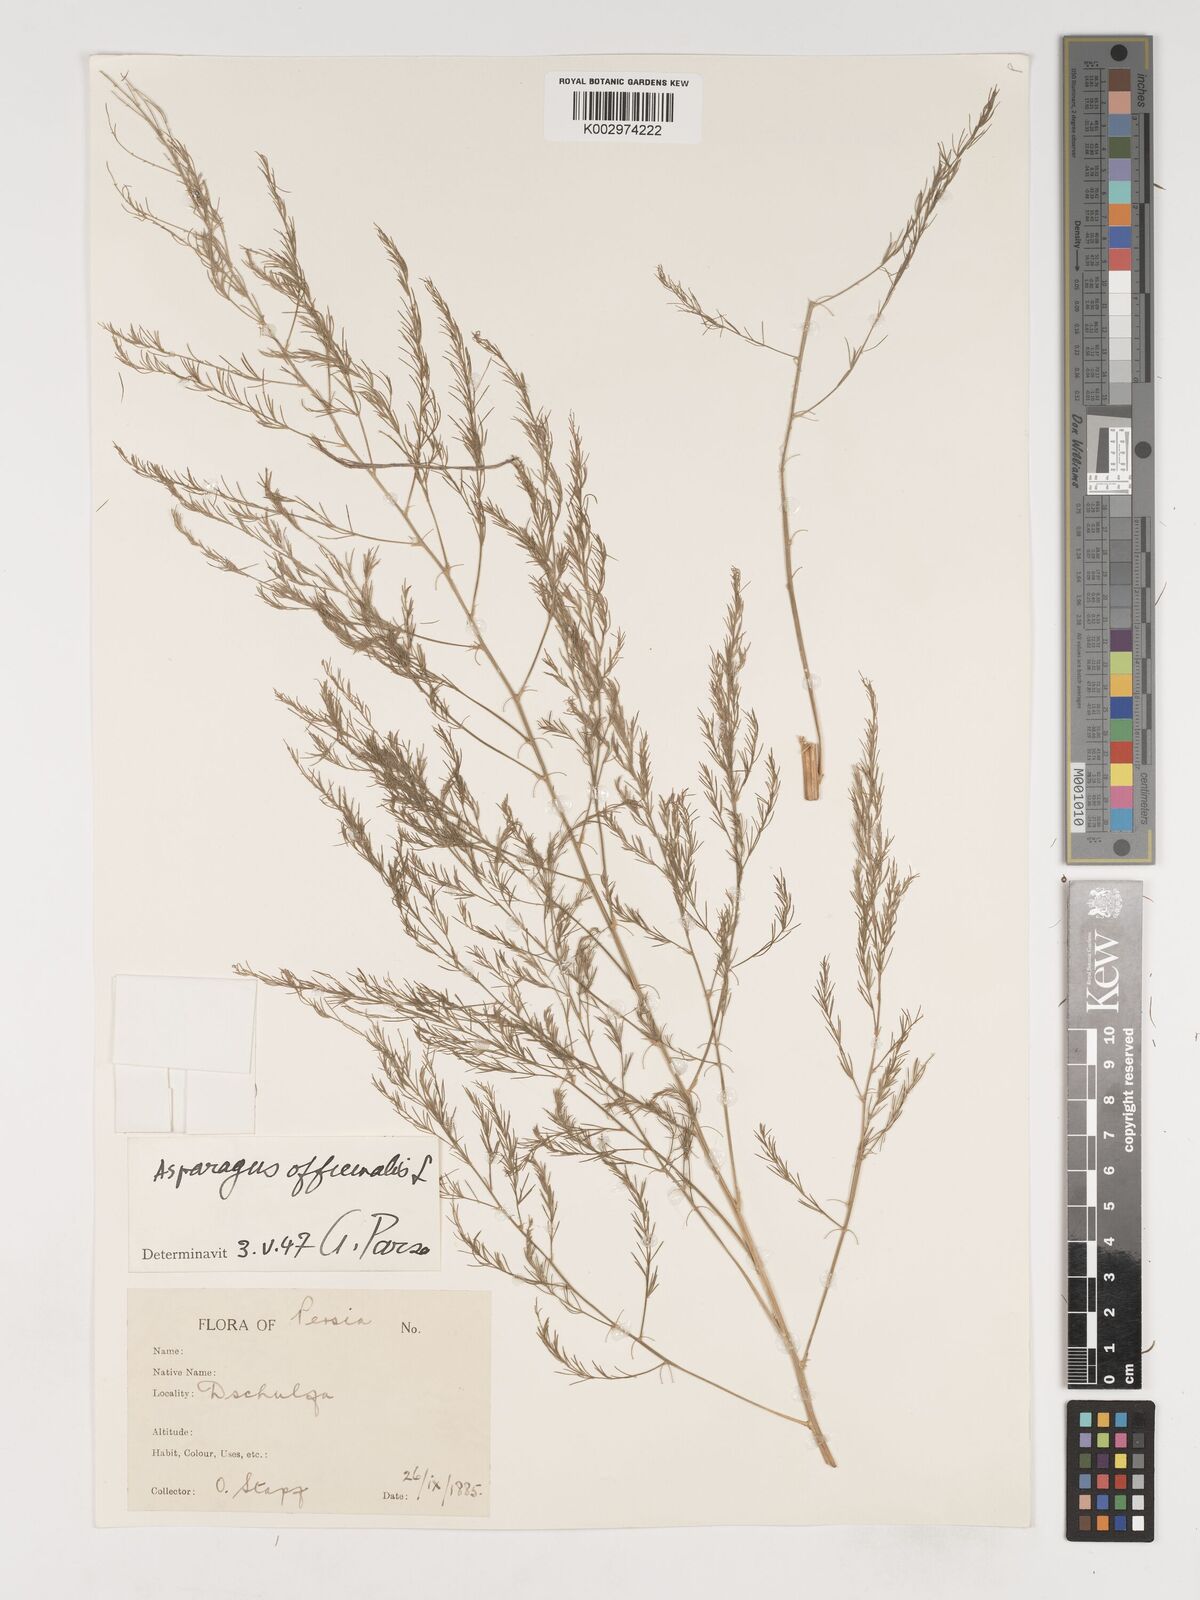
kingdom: Plantae
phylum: Tracheophyta
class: Liliopsida
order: Asparagales
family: Asparagaceae
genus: Asparagus
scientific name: Asparagus officinalis
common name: Garden asparagus
